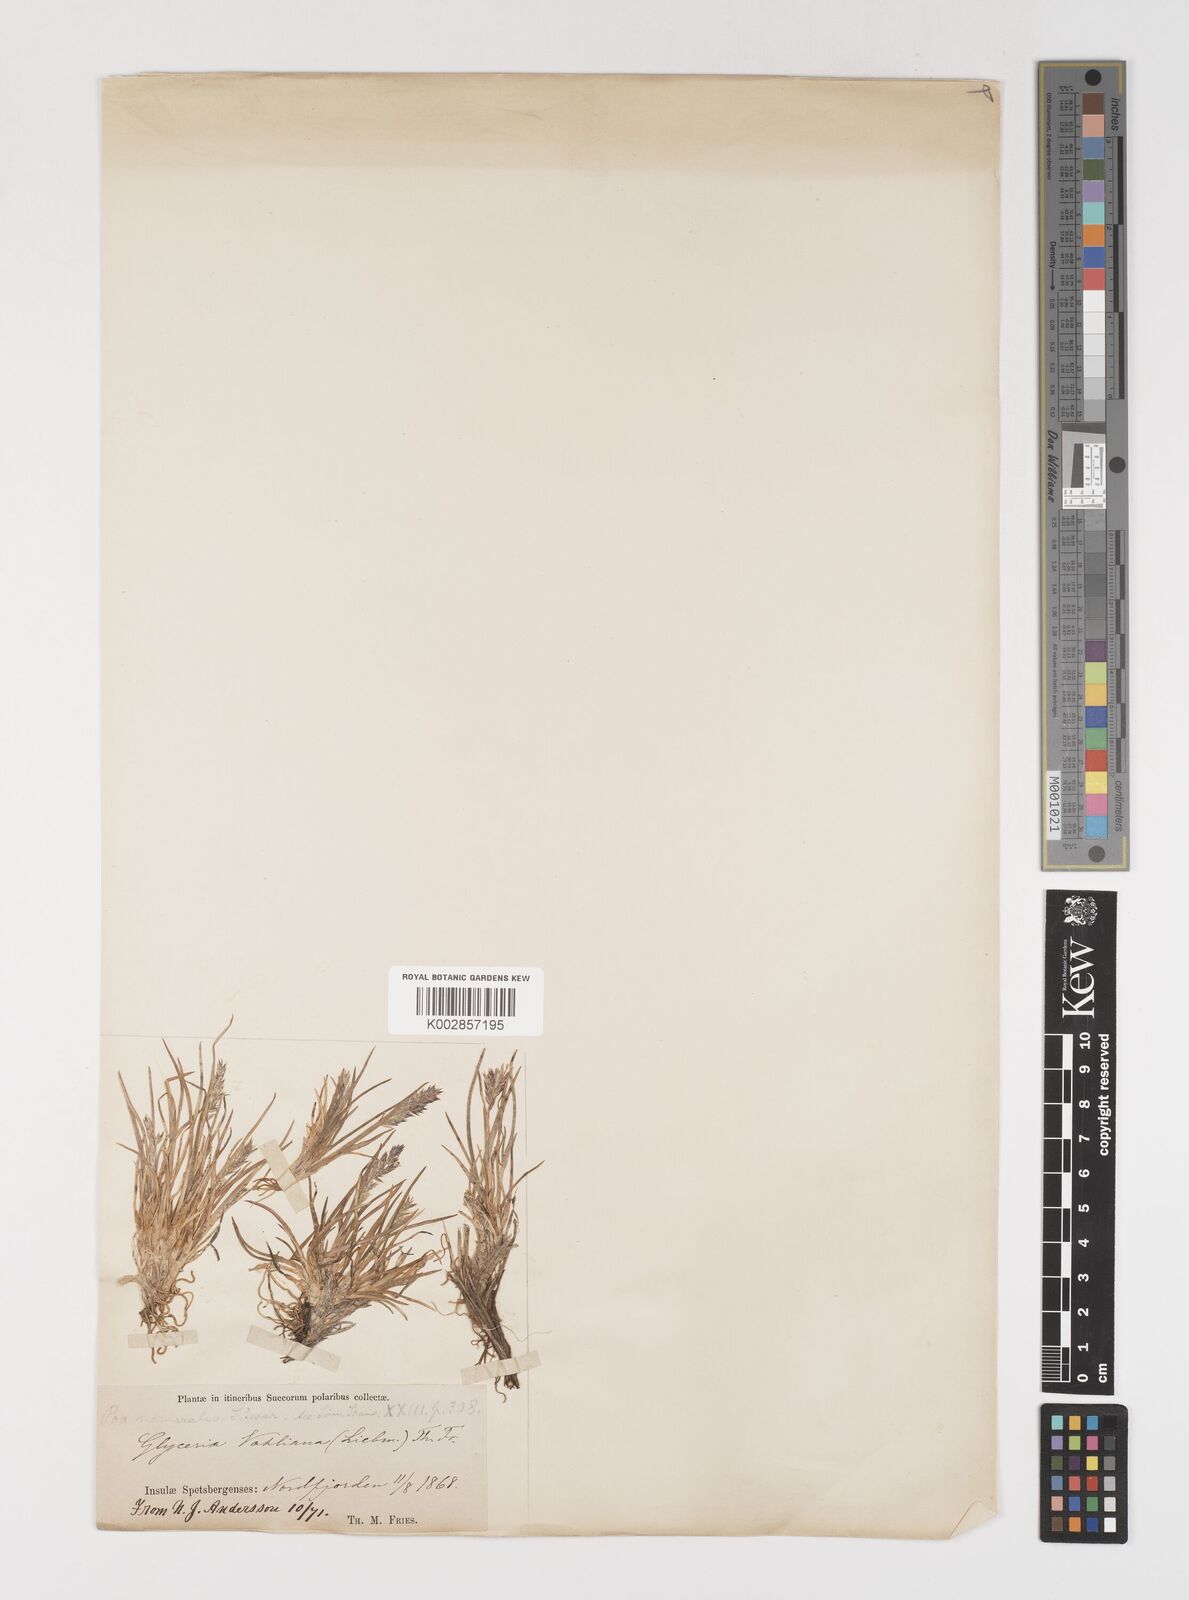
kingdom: Plantae
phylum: Tracheophyta
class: Liliopsida
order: Poales
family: Poaceae
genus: Puccinellia
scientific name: Puccinellia vahliana
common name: Vahl's alkaligrass
